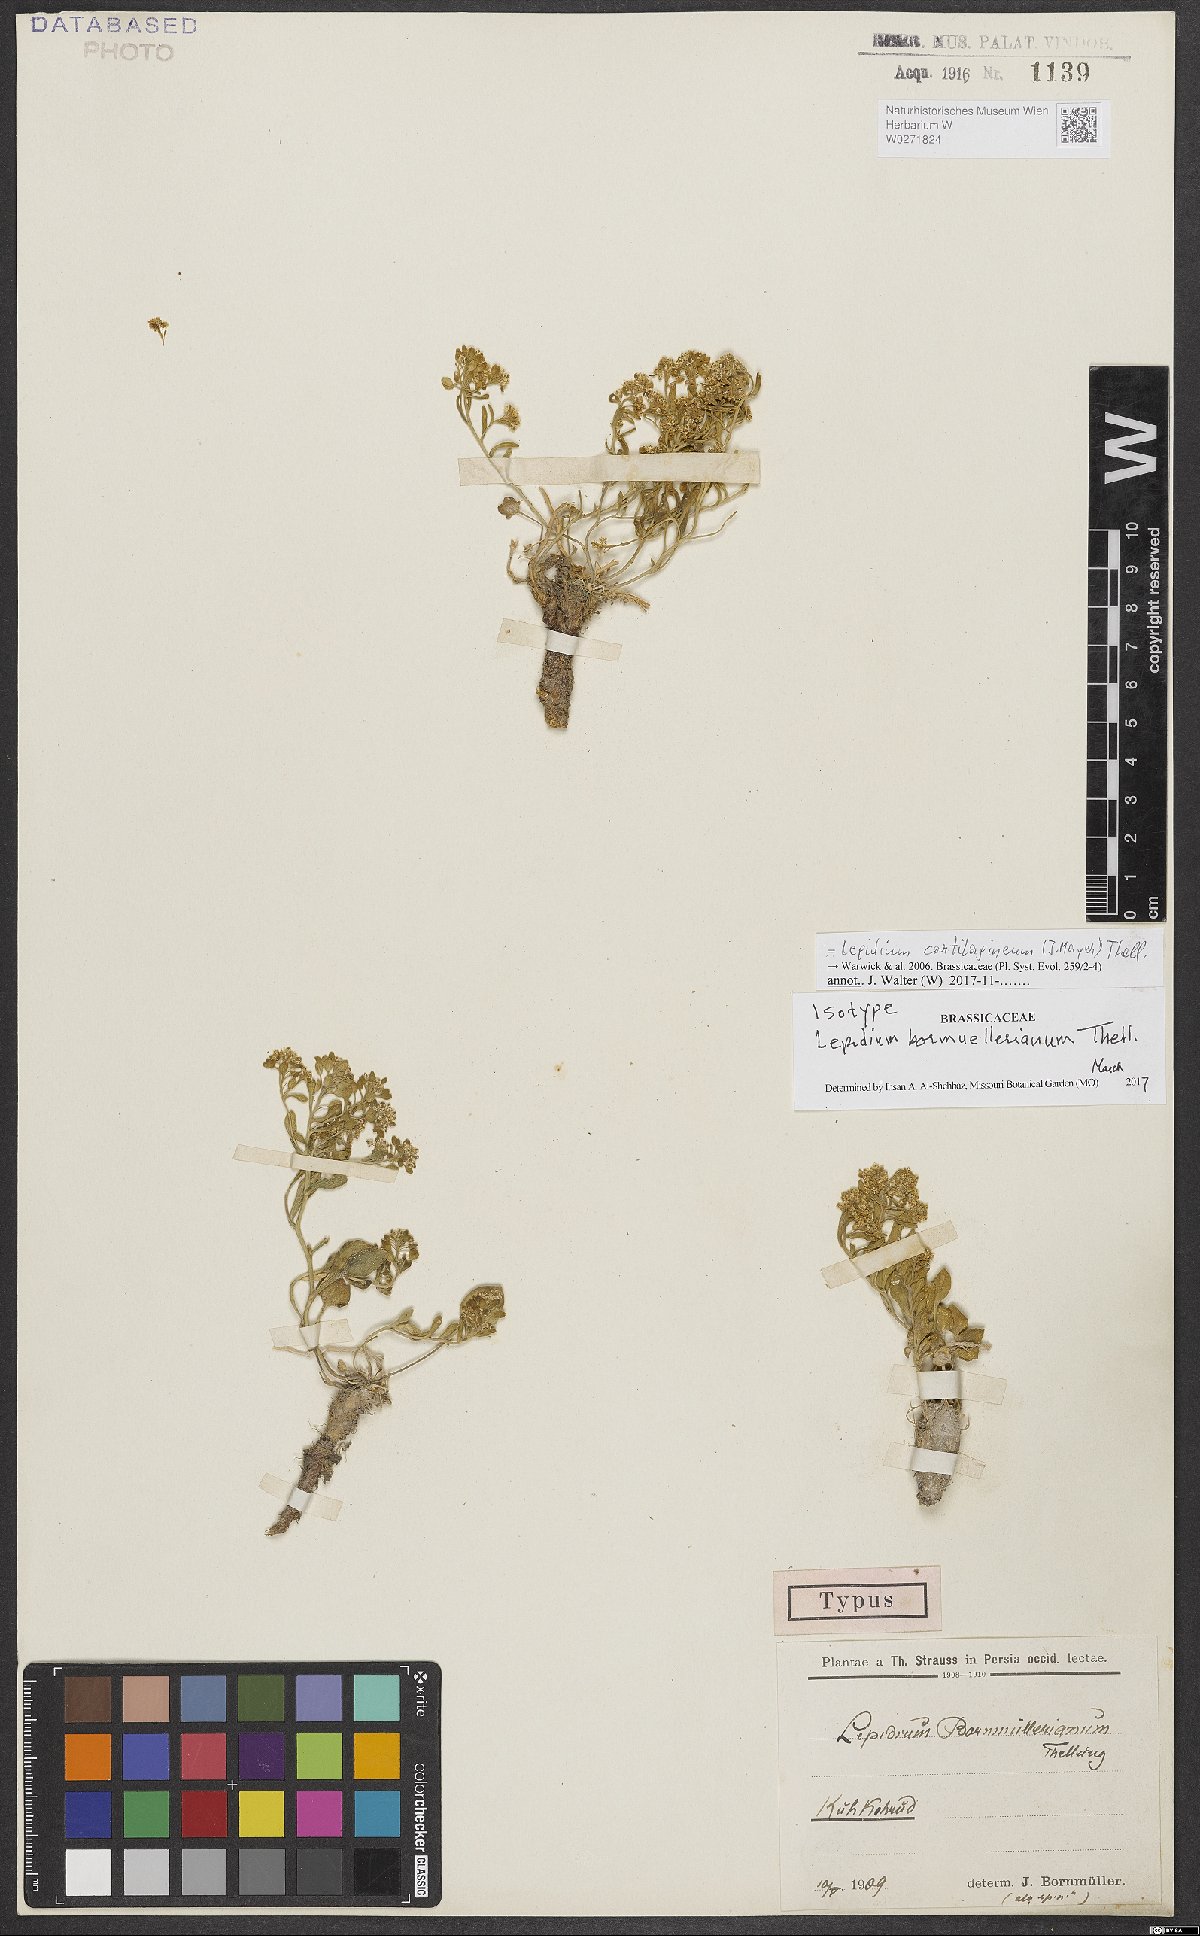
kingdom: Plantae
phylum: Tracheophyta
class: Magnoliopsida
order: Brassicales
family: Brassicaceae
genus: Lepidium
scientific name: Lepidium cartilagineum
